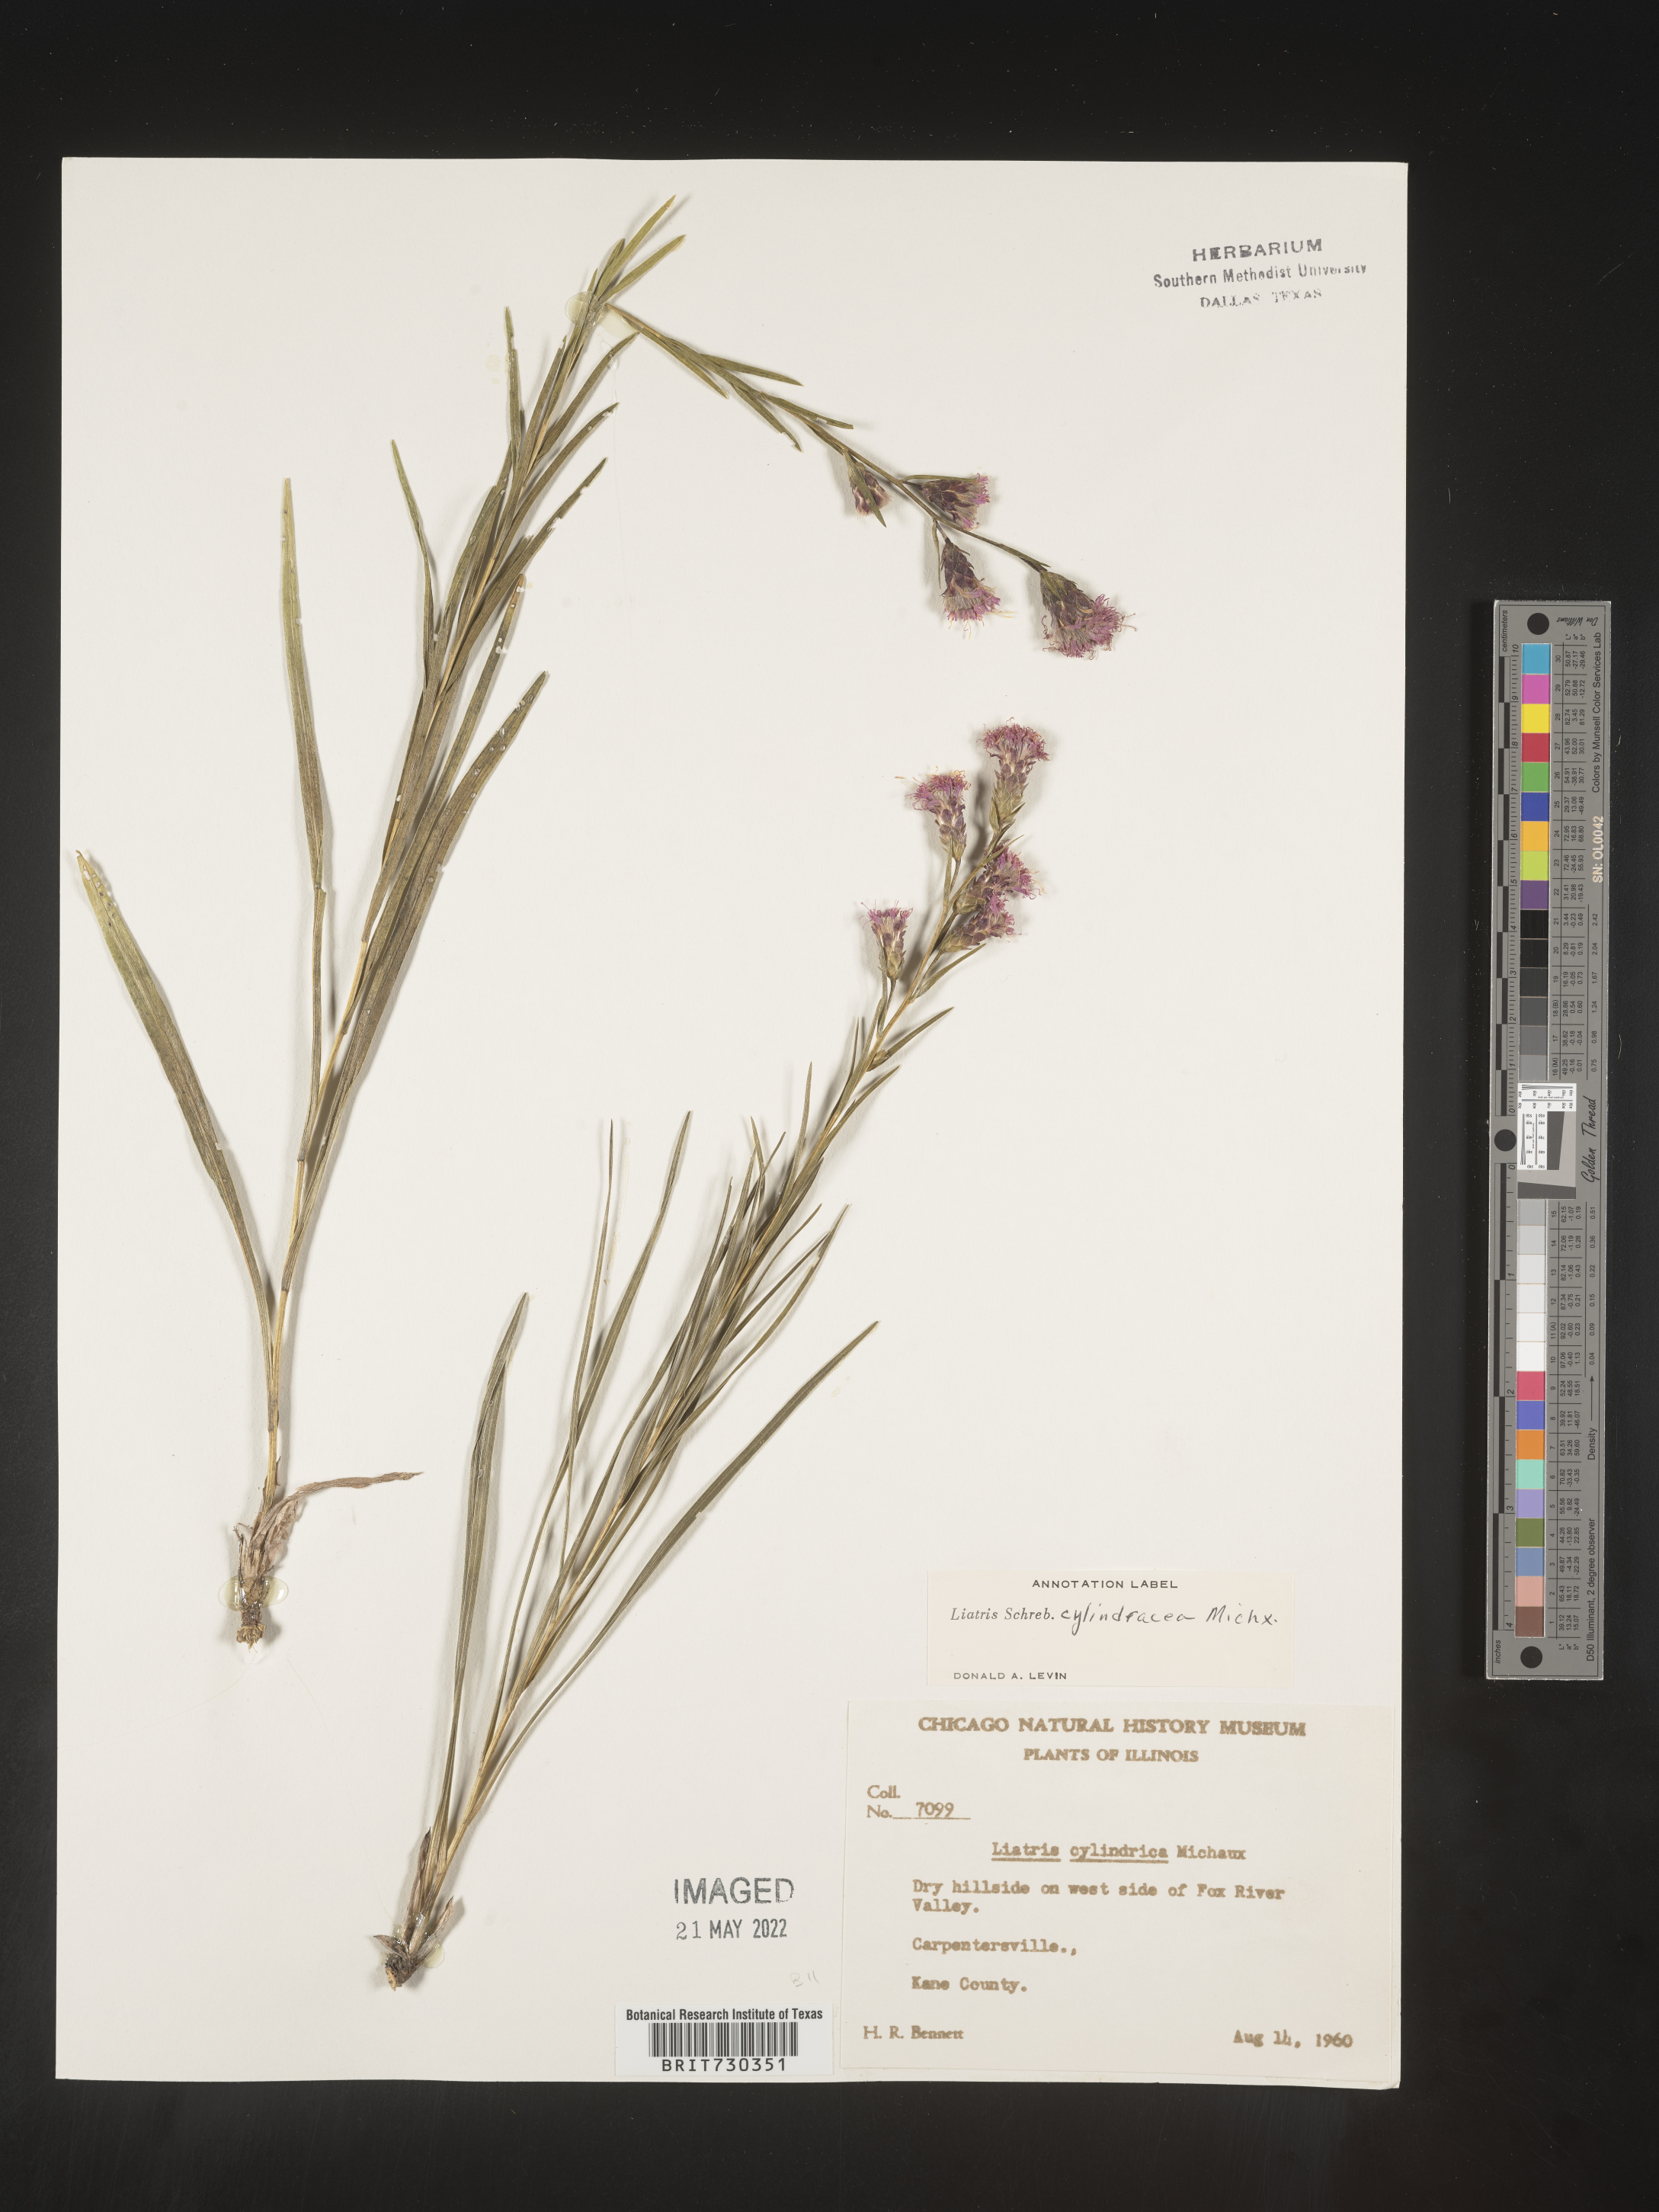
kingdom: Plantae
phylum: Tracheophyta
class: Magnoliopsida
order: Asterales
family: Asteraceae
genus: Liatris
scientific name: Liatris cylindracea
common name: Few-head blazingstar
